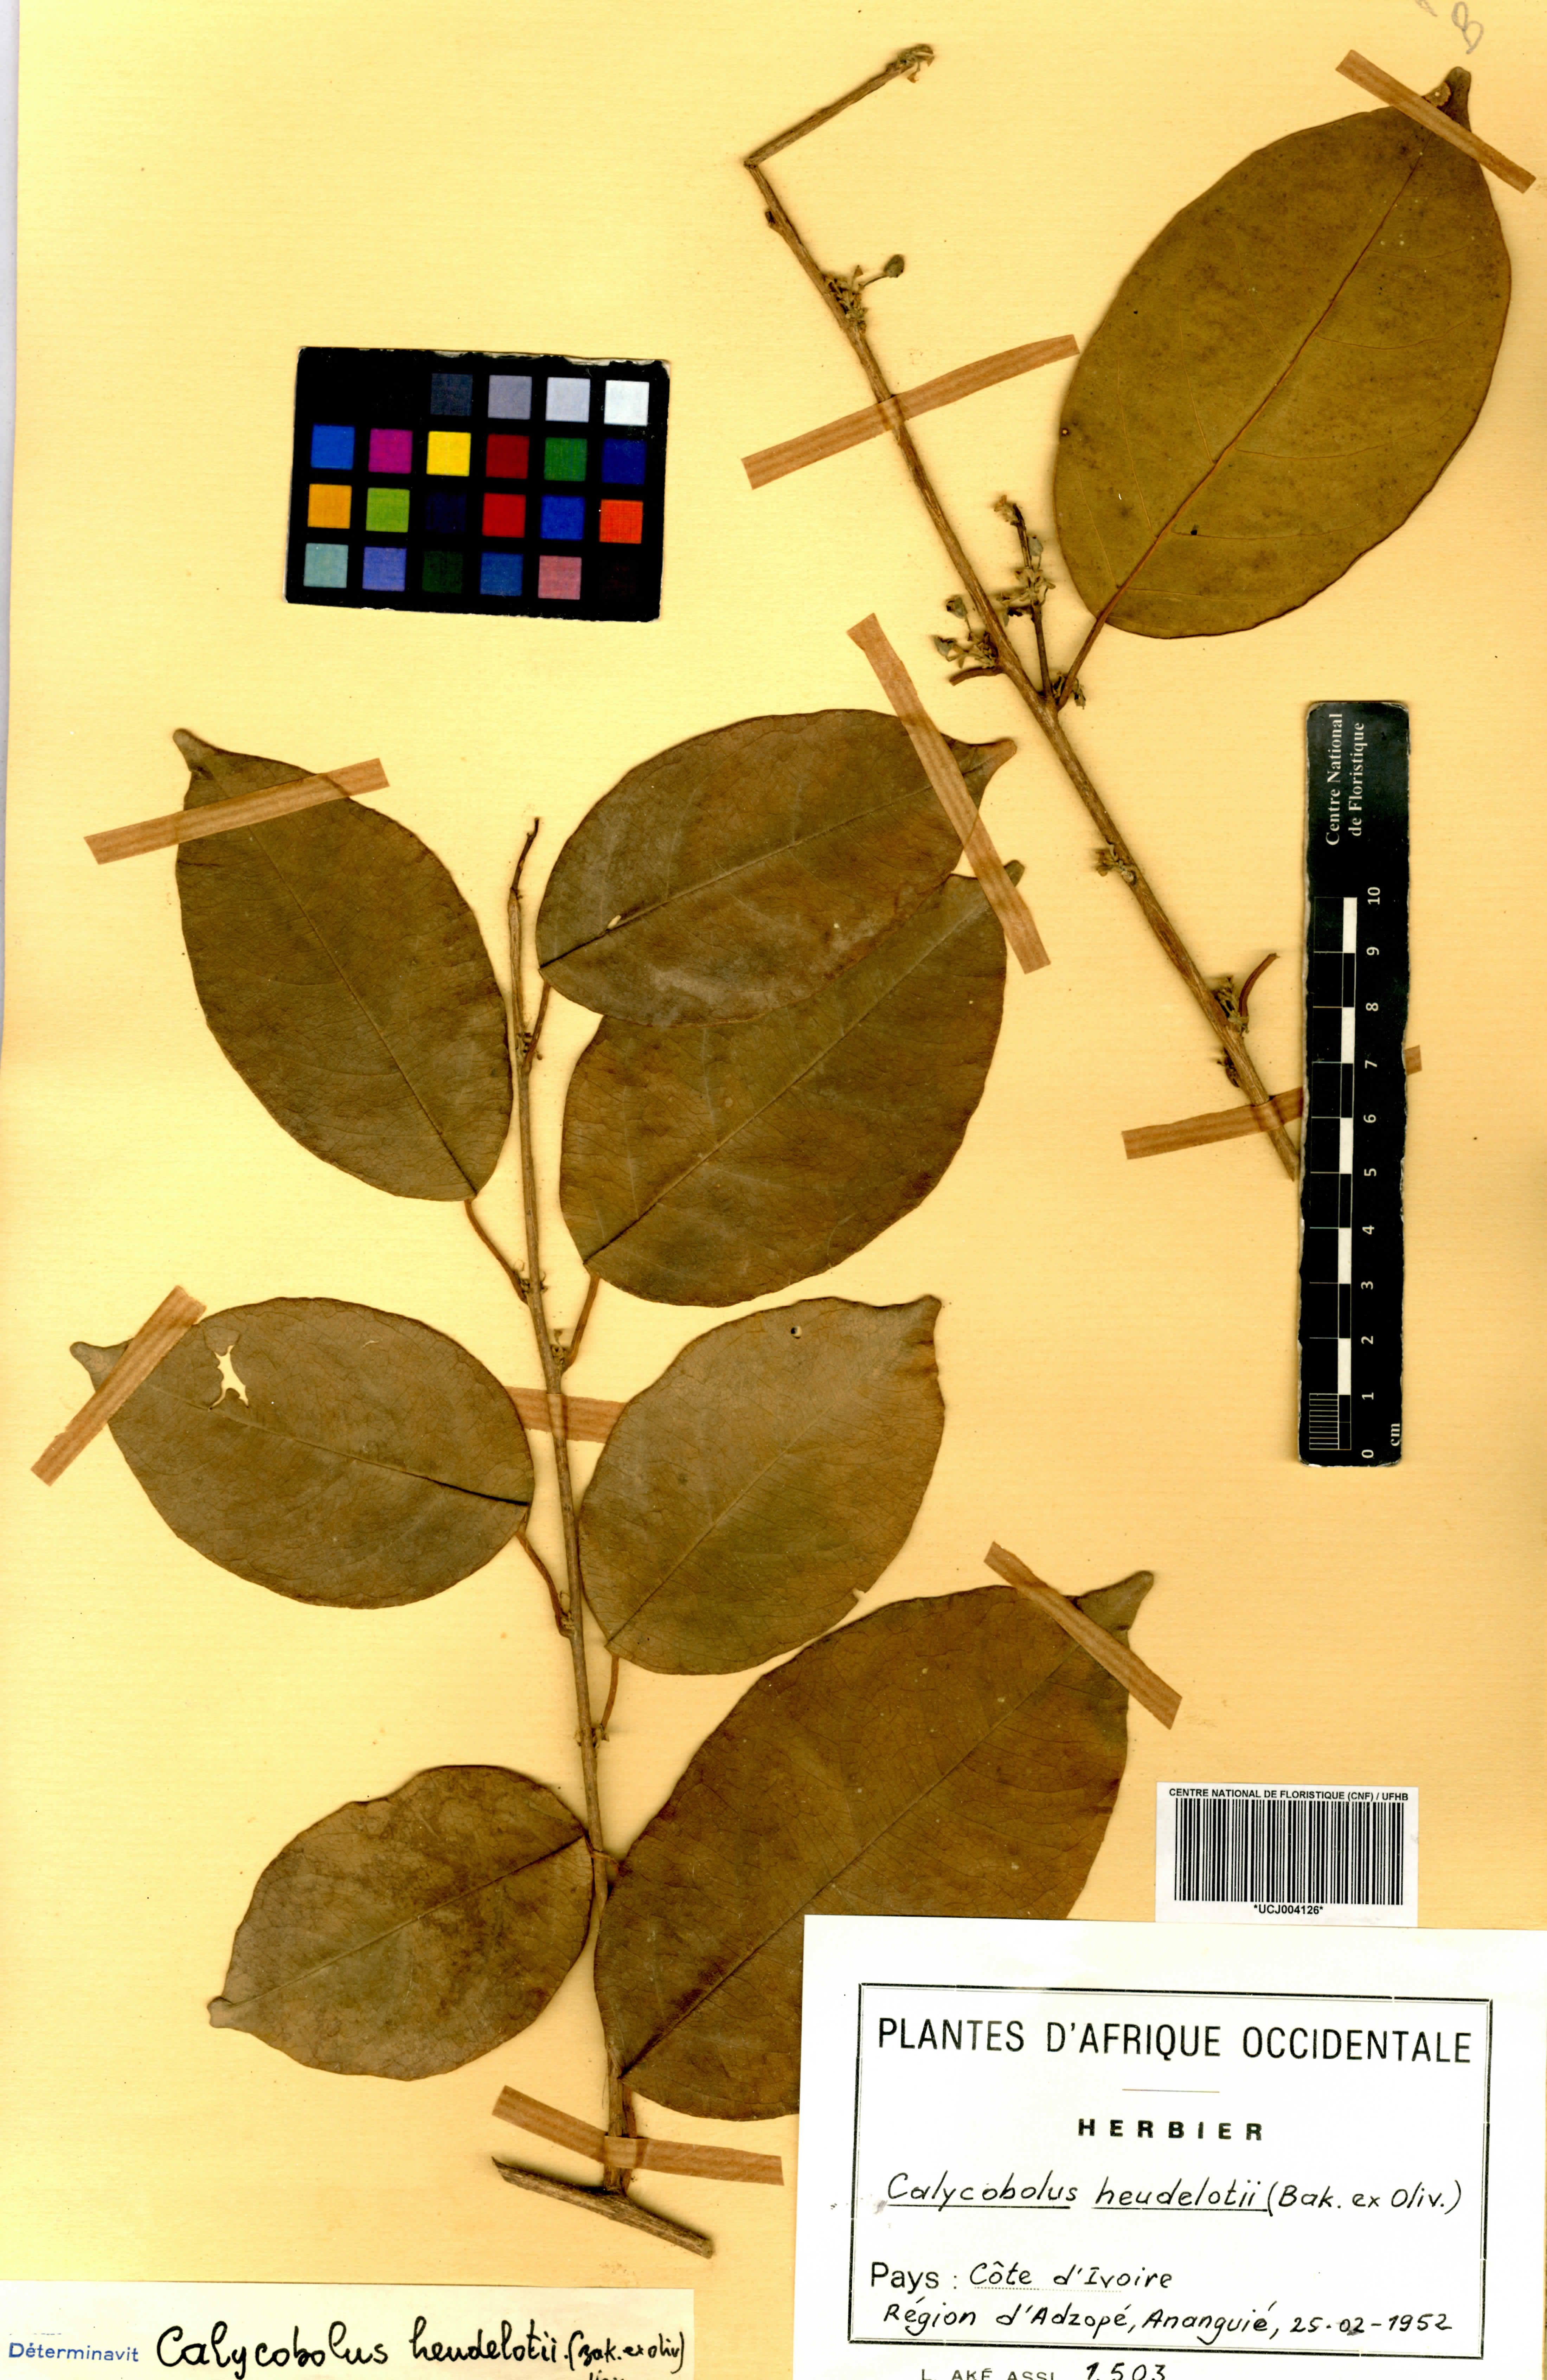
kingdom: Plantae
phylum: Tracheophyta
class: Magnoliopsida
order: Solanales
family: Convolvulaceae
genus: Calycobolus
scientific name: Calycobolus heudelotii
